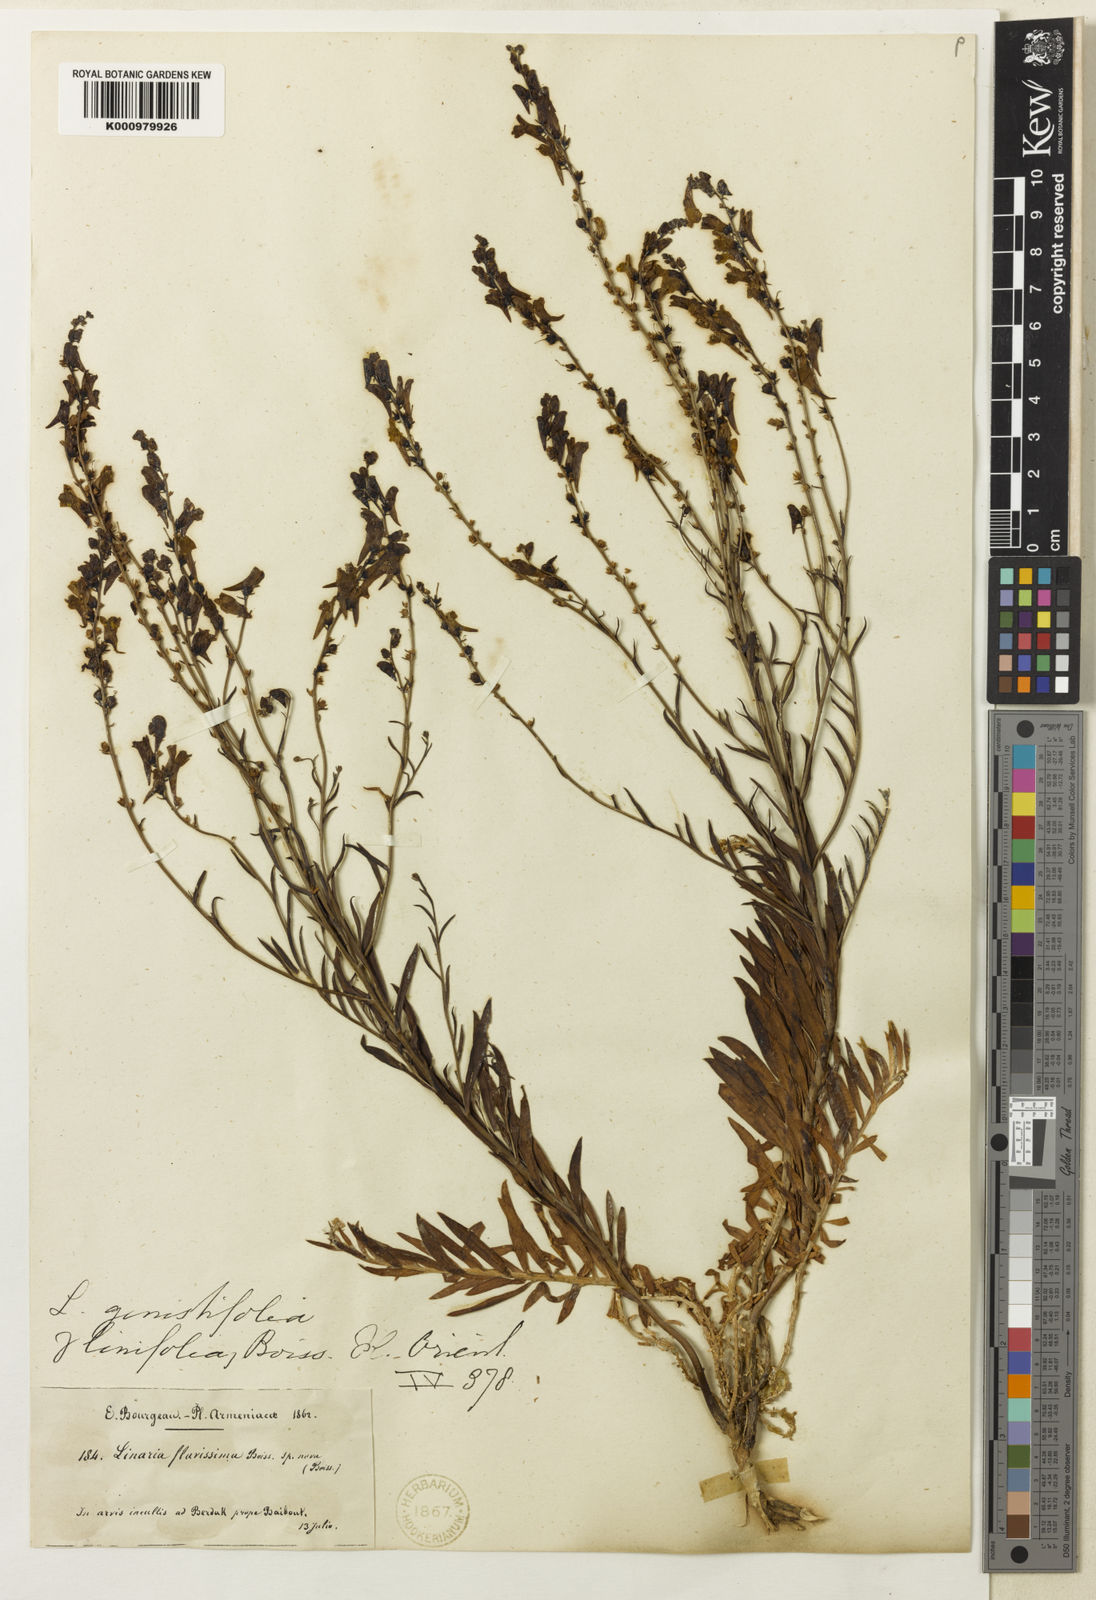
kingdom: Plantae
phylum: Tracheophyta
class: Magnoliopsida
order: Lamiales
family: Plantaginaceae
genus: Linaria
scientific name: Linaria genistifolia
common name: Broomleaf toadflax
